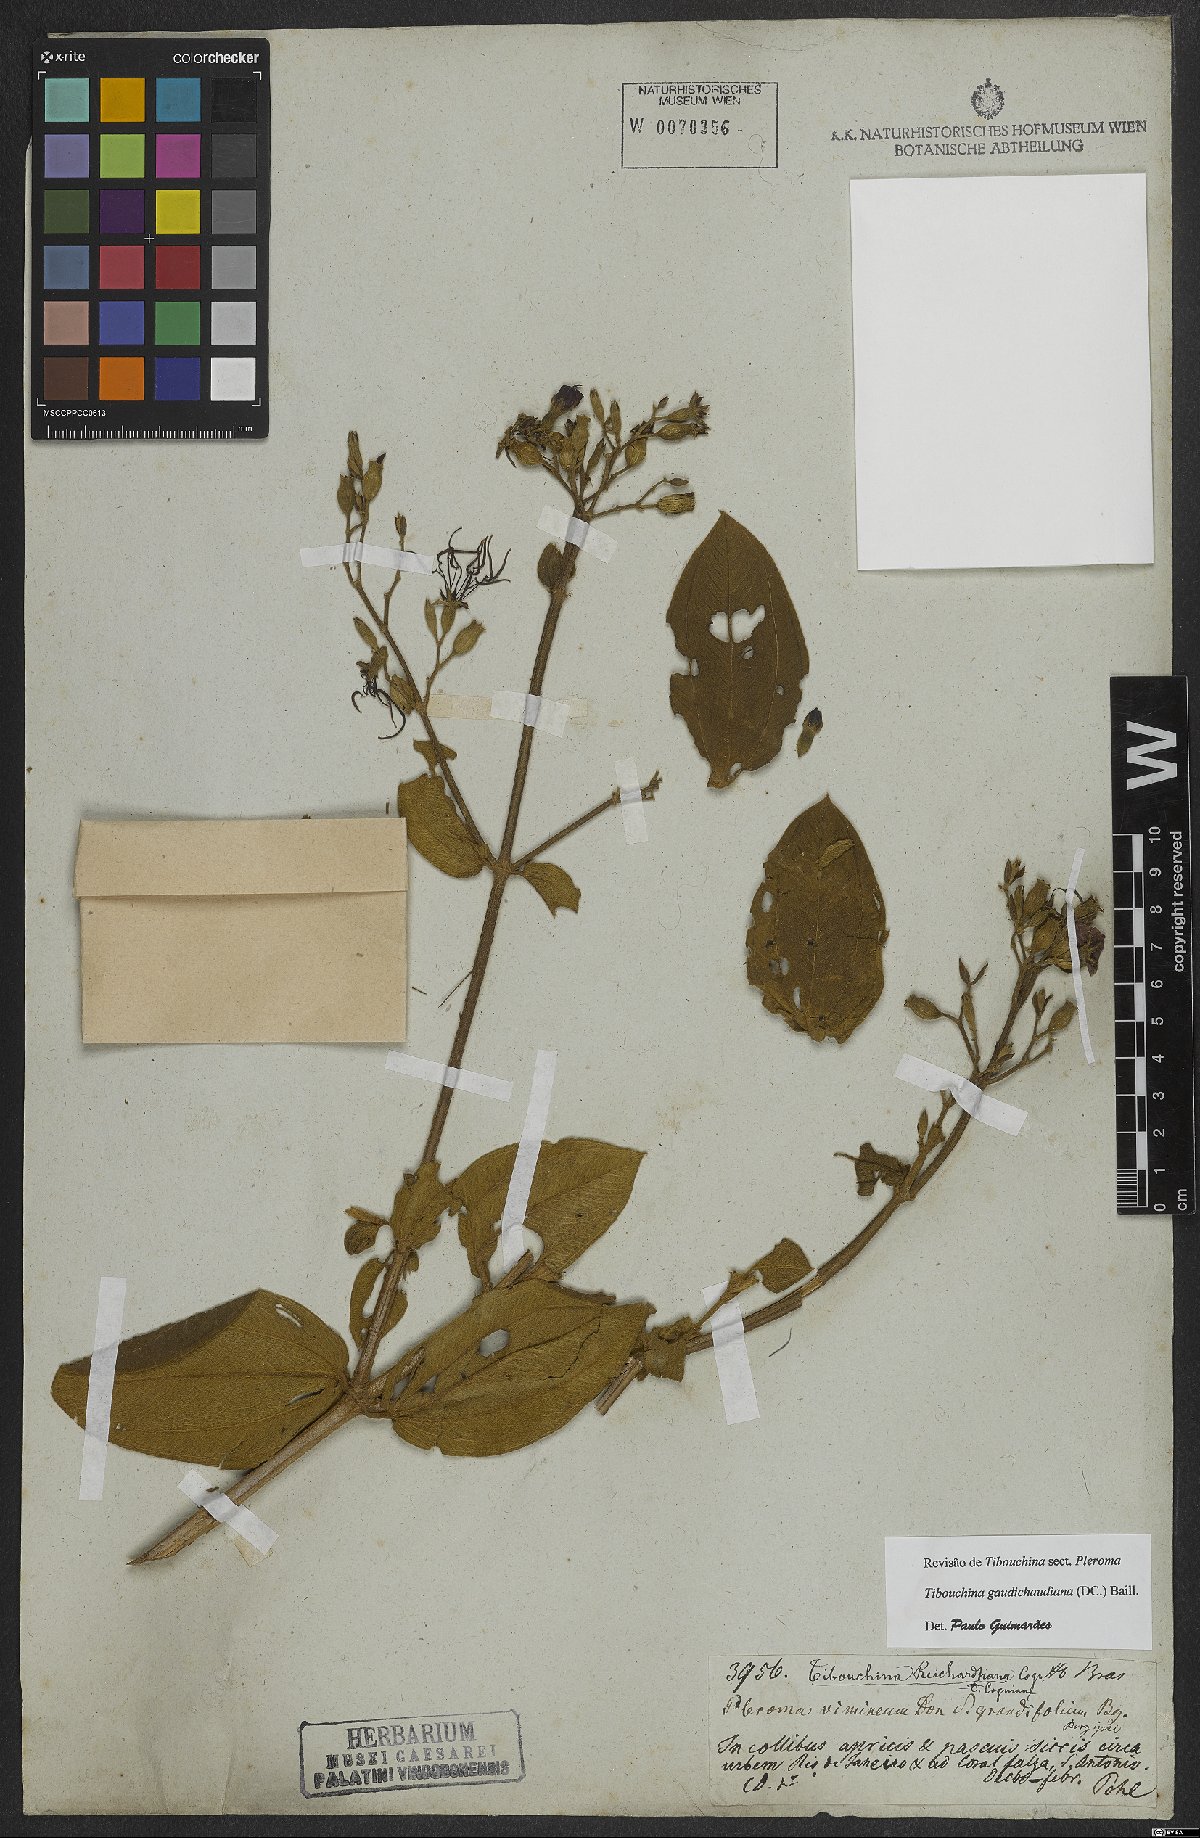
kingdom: Plantae
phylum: Tracheophyta
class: Magnoliopsida
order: Myrtales
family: Melastomataceae
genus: Pleroma
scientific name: Pleroma gaudichaudianum
